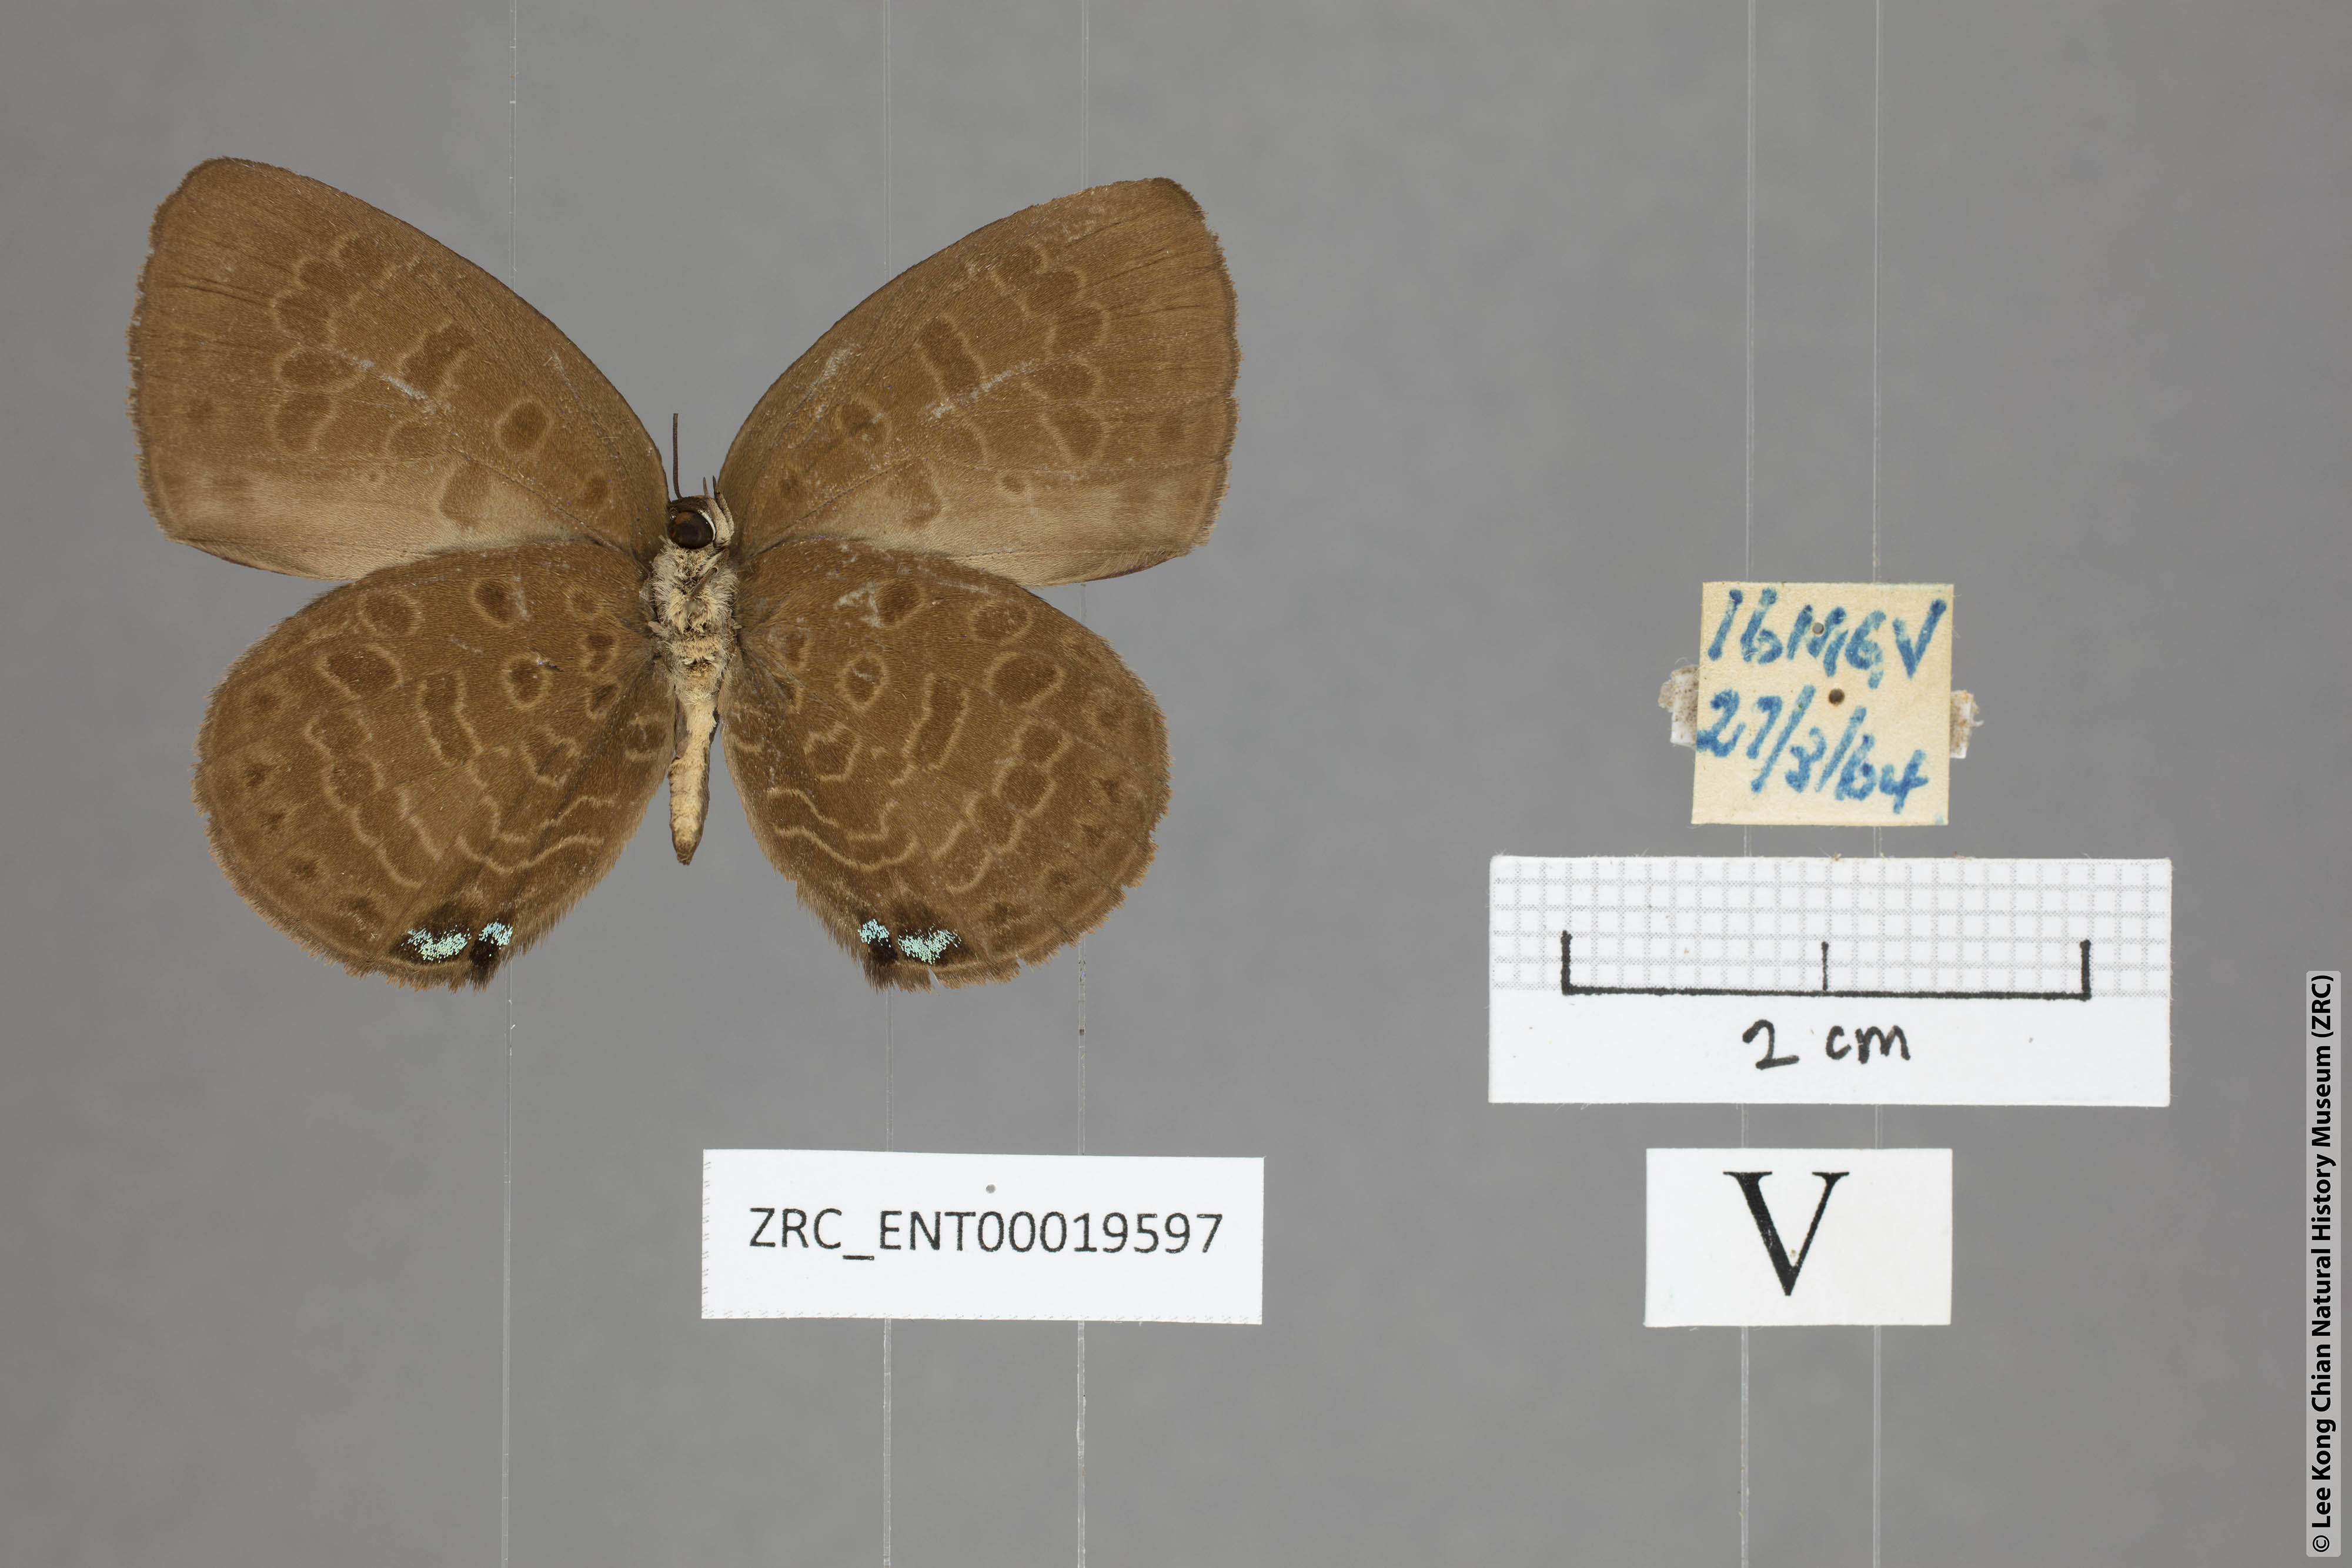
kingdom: Animalia
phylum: Arthropoda
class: Insecta
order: Lepidoptera
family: Lycaenidae
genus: Arhopala
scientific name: Arhopala kurzi
